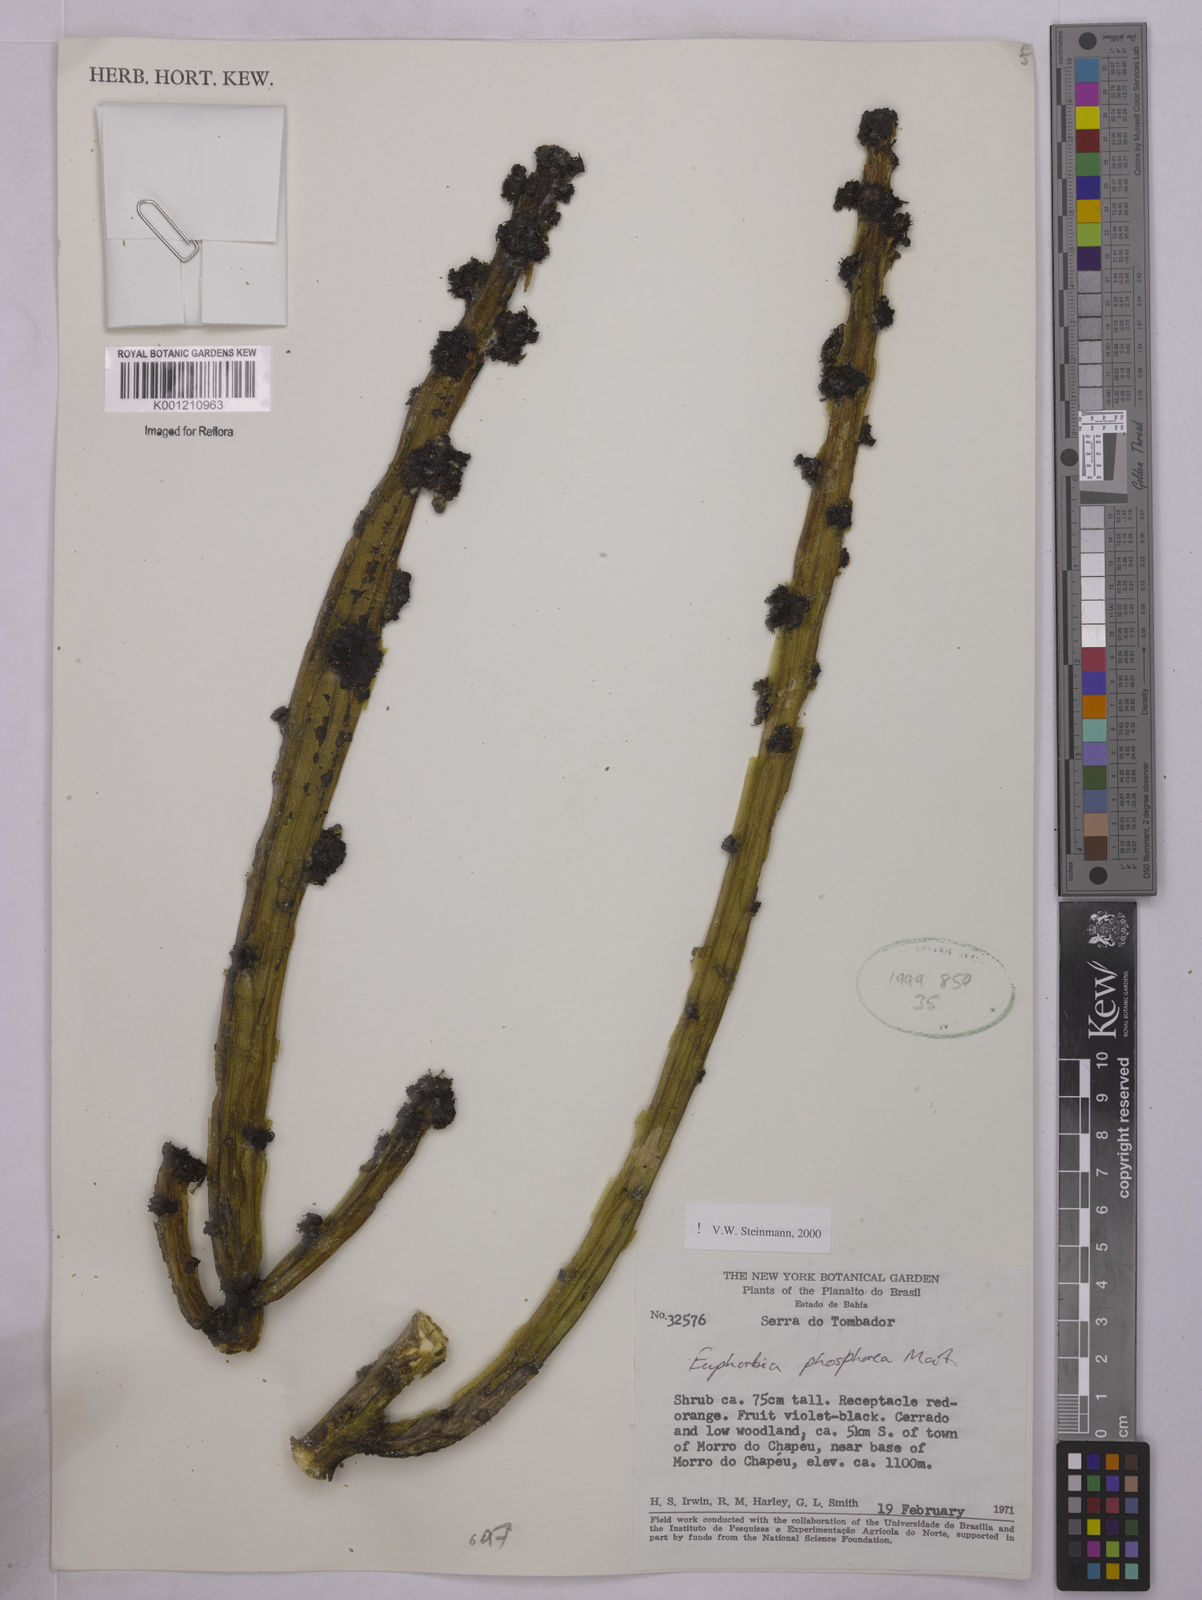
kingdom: Plantae
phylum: Tracheophyta
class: Magnoliopsida
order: Malpighiales
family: Euphorbiaceae
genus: Euphorbia
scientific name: Euphorbia phosphorea
